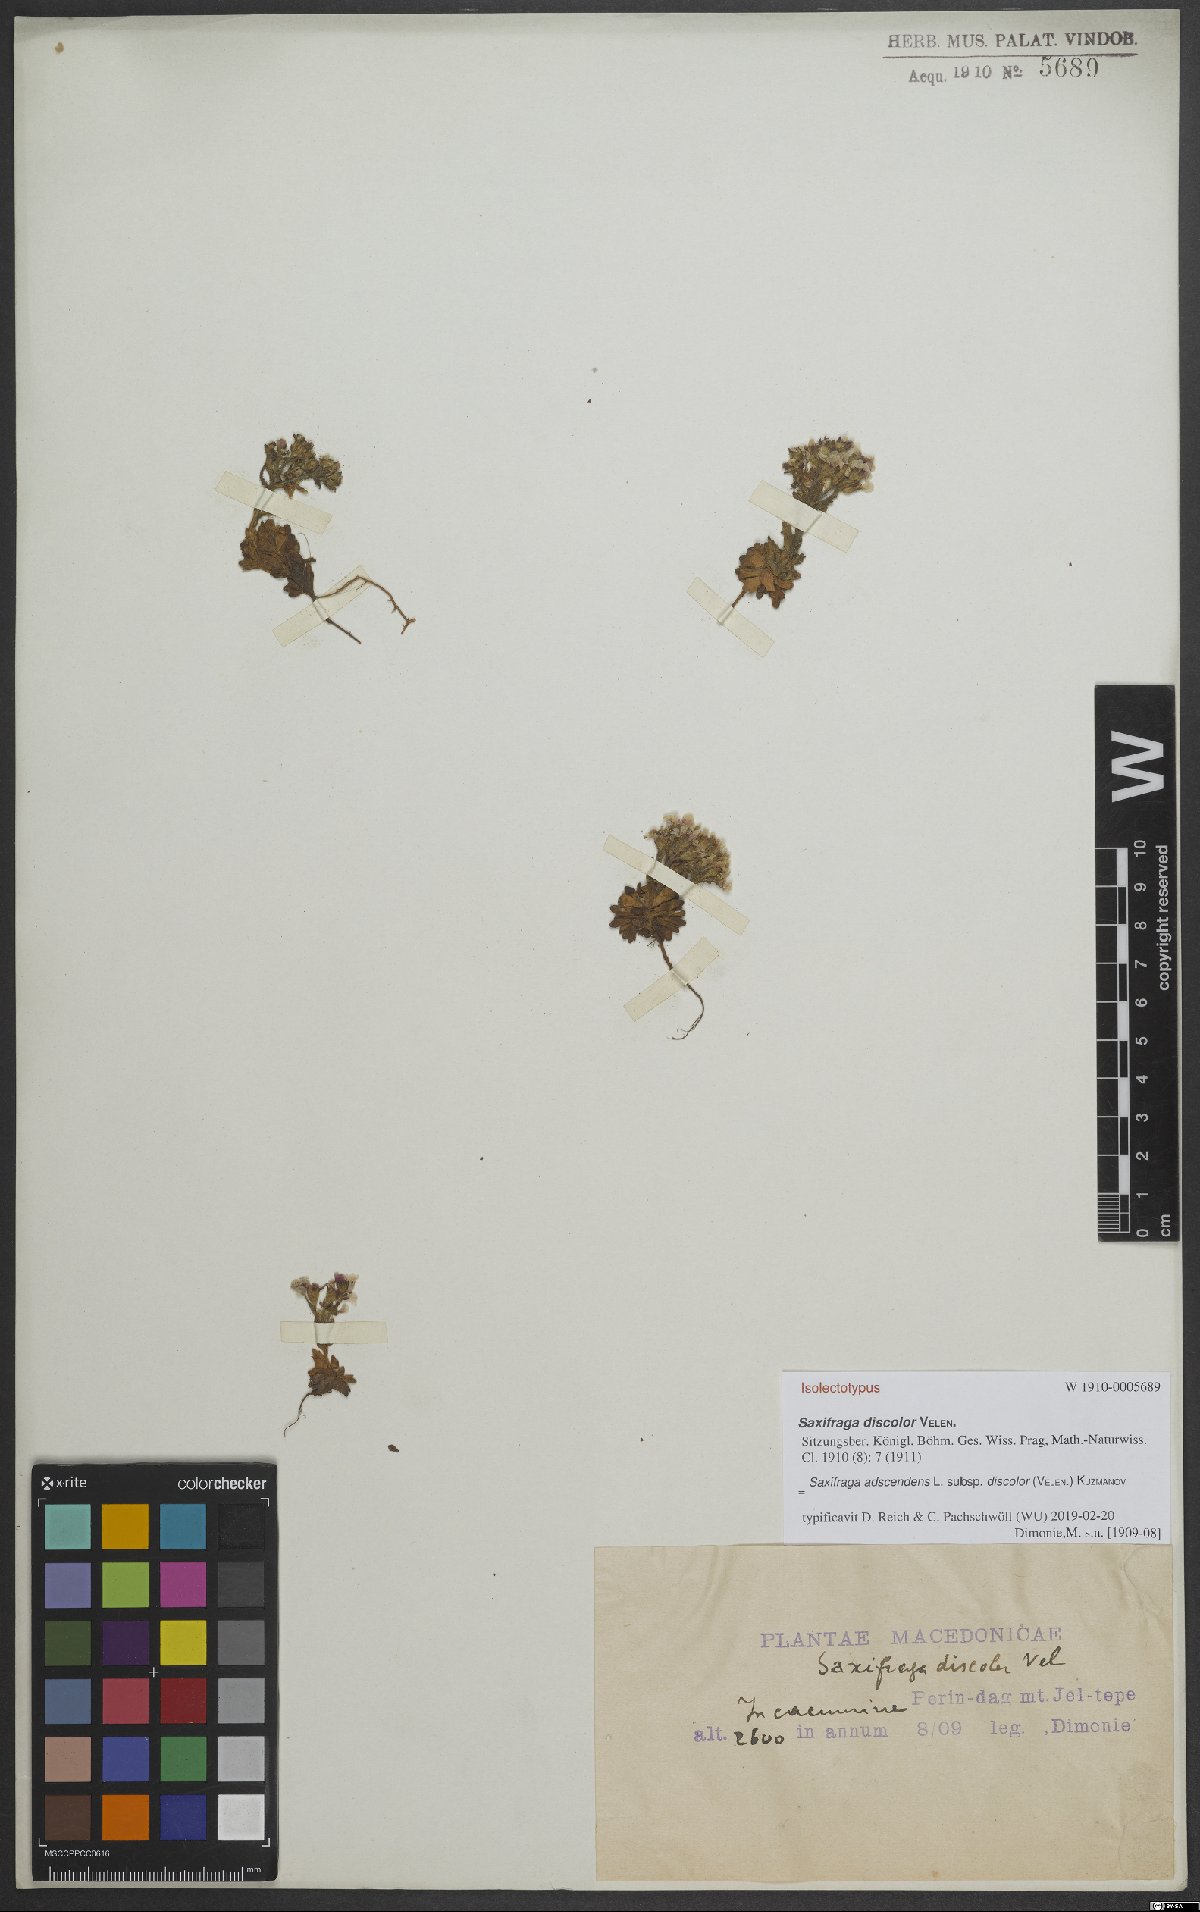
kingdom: Plantae
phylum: Tracheophyta
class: Magnoliopsida
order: Saxifragales
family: Saxifragaceae
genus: Saxifraga
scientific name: Saxifraga adscendens
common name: Ascending saxifrage
